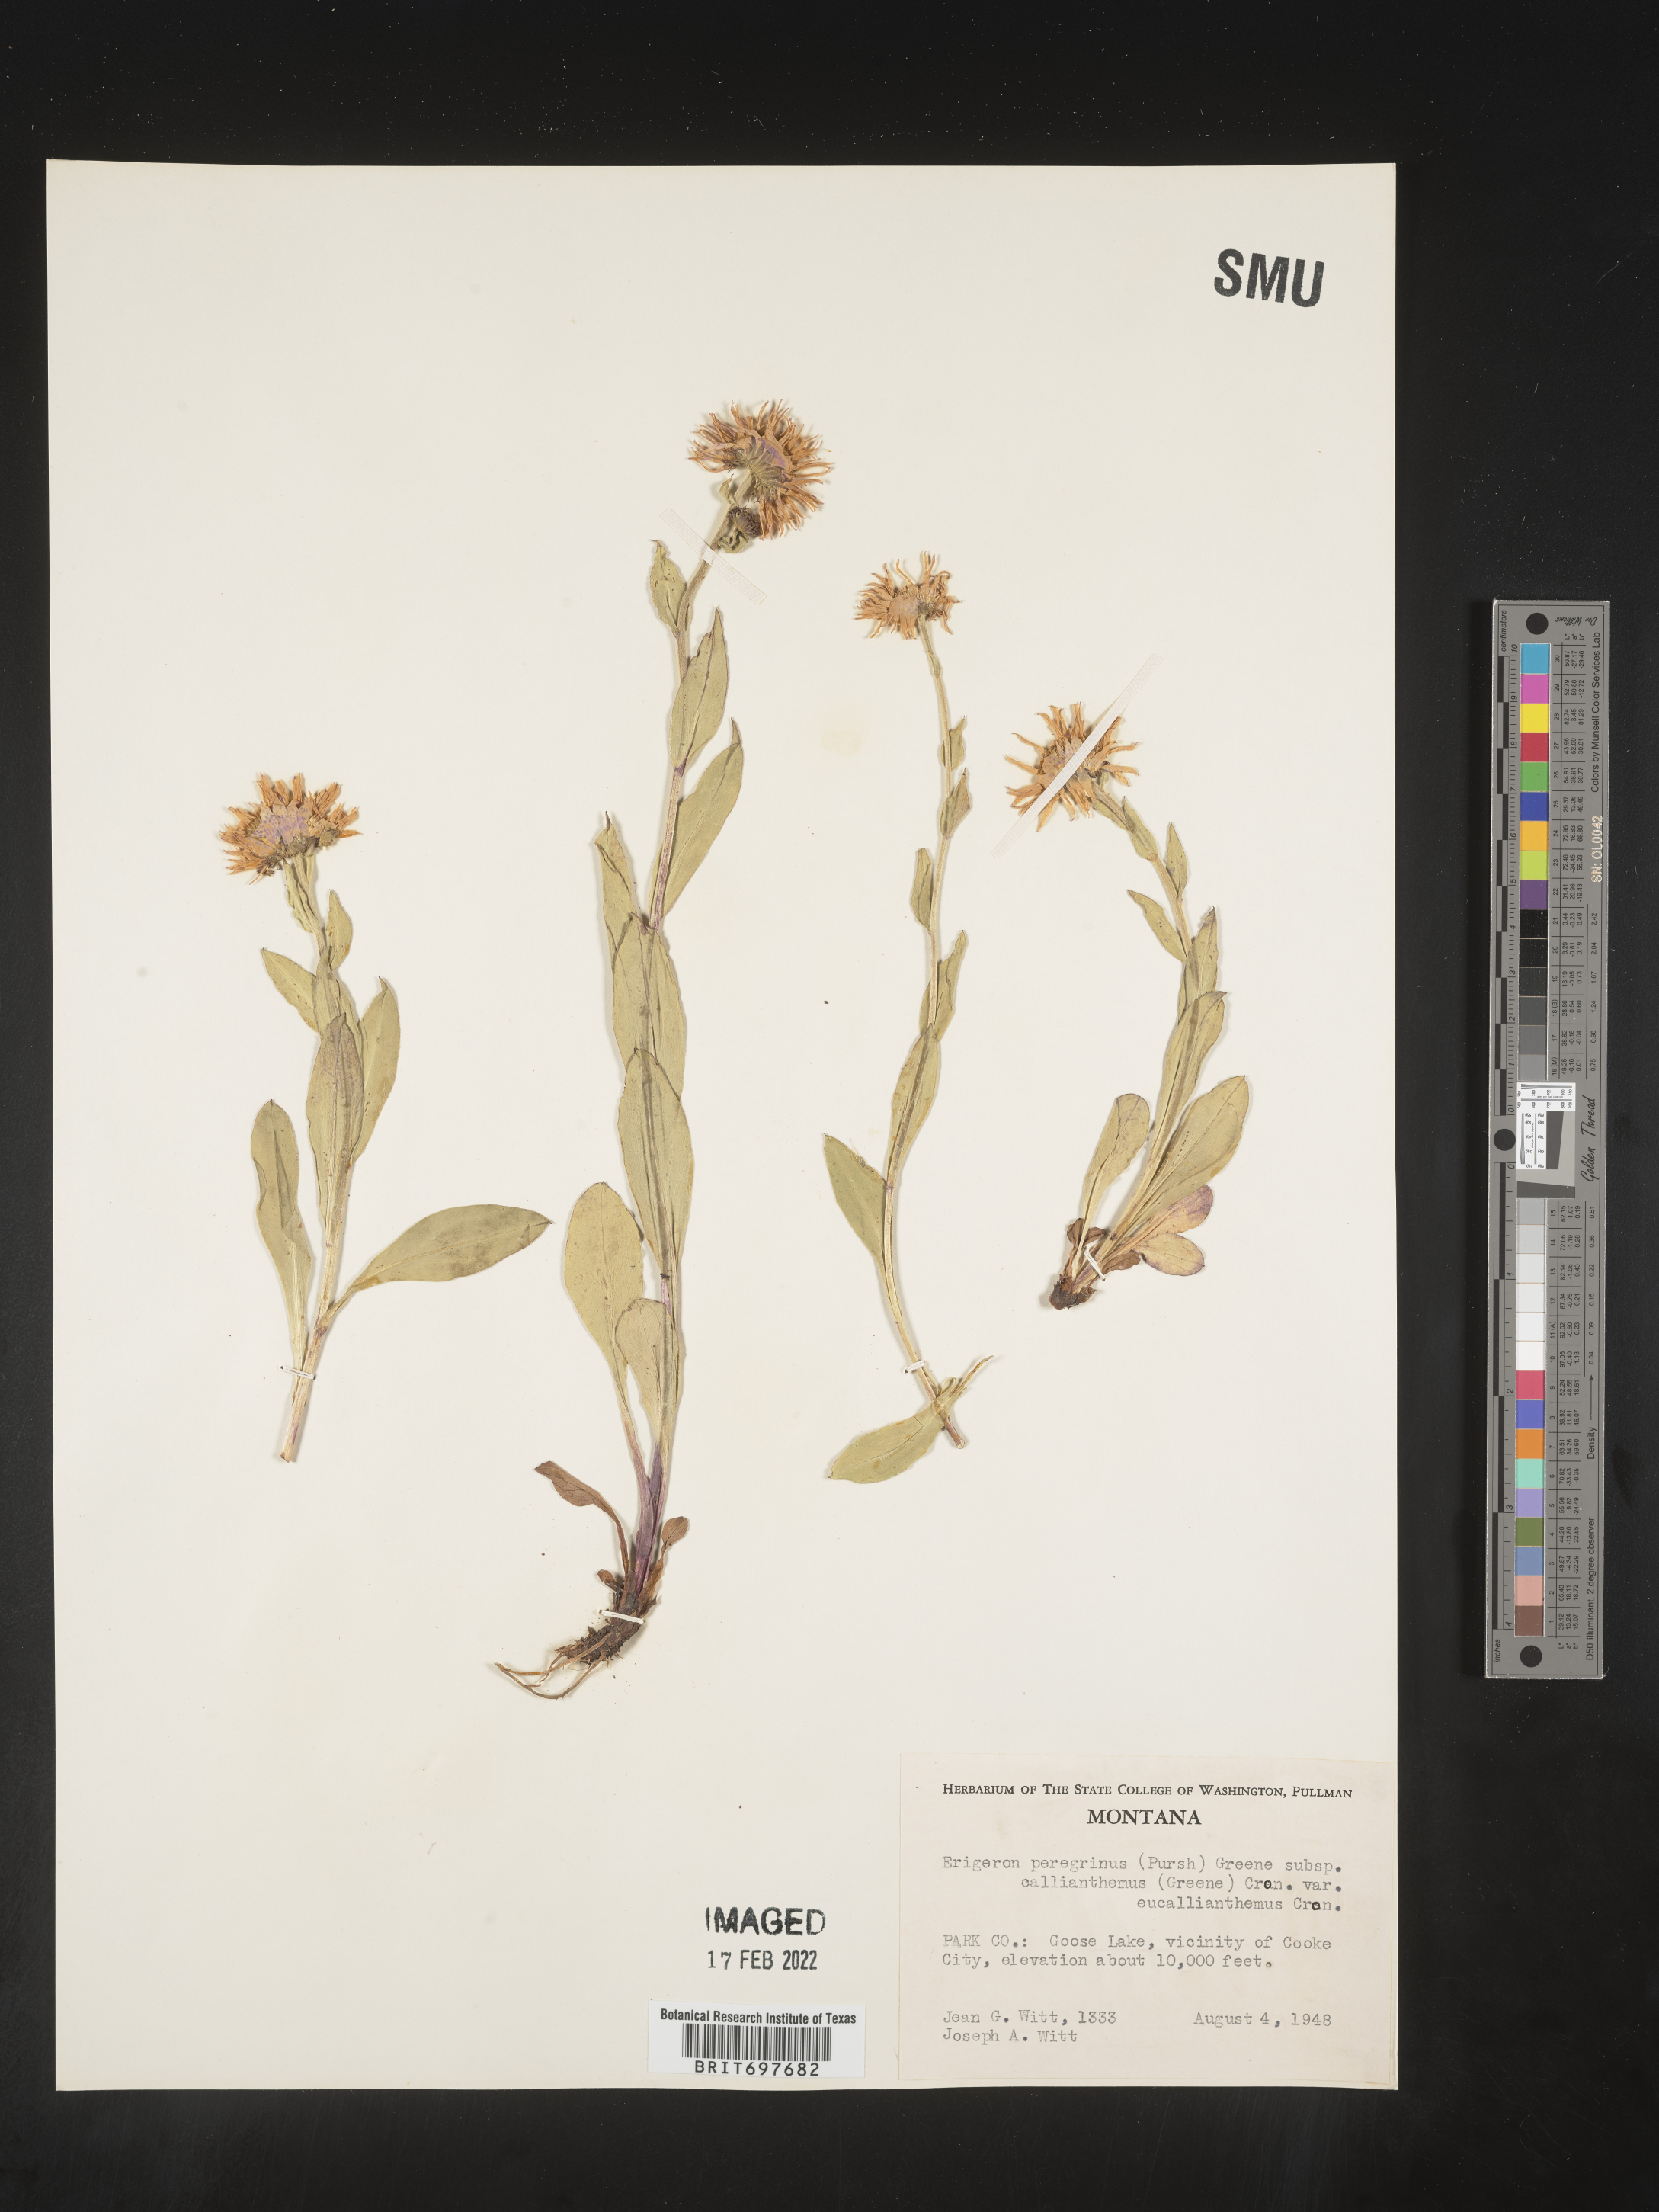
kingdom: Plantae
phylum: Tracheophyta
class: Magnoliopsida
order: Asterales
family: Asteraceae
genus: Erigeron
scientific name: Erigeron glacialis
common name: Subalpine fleabane
